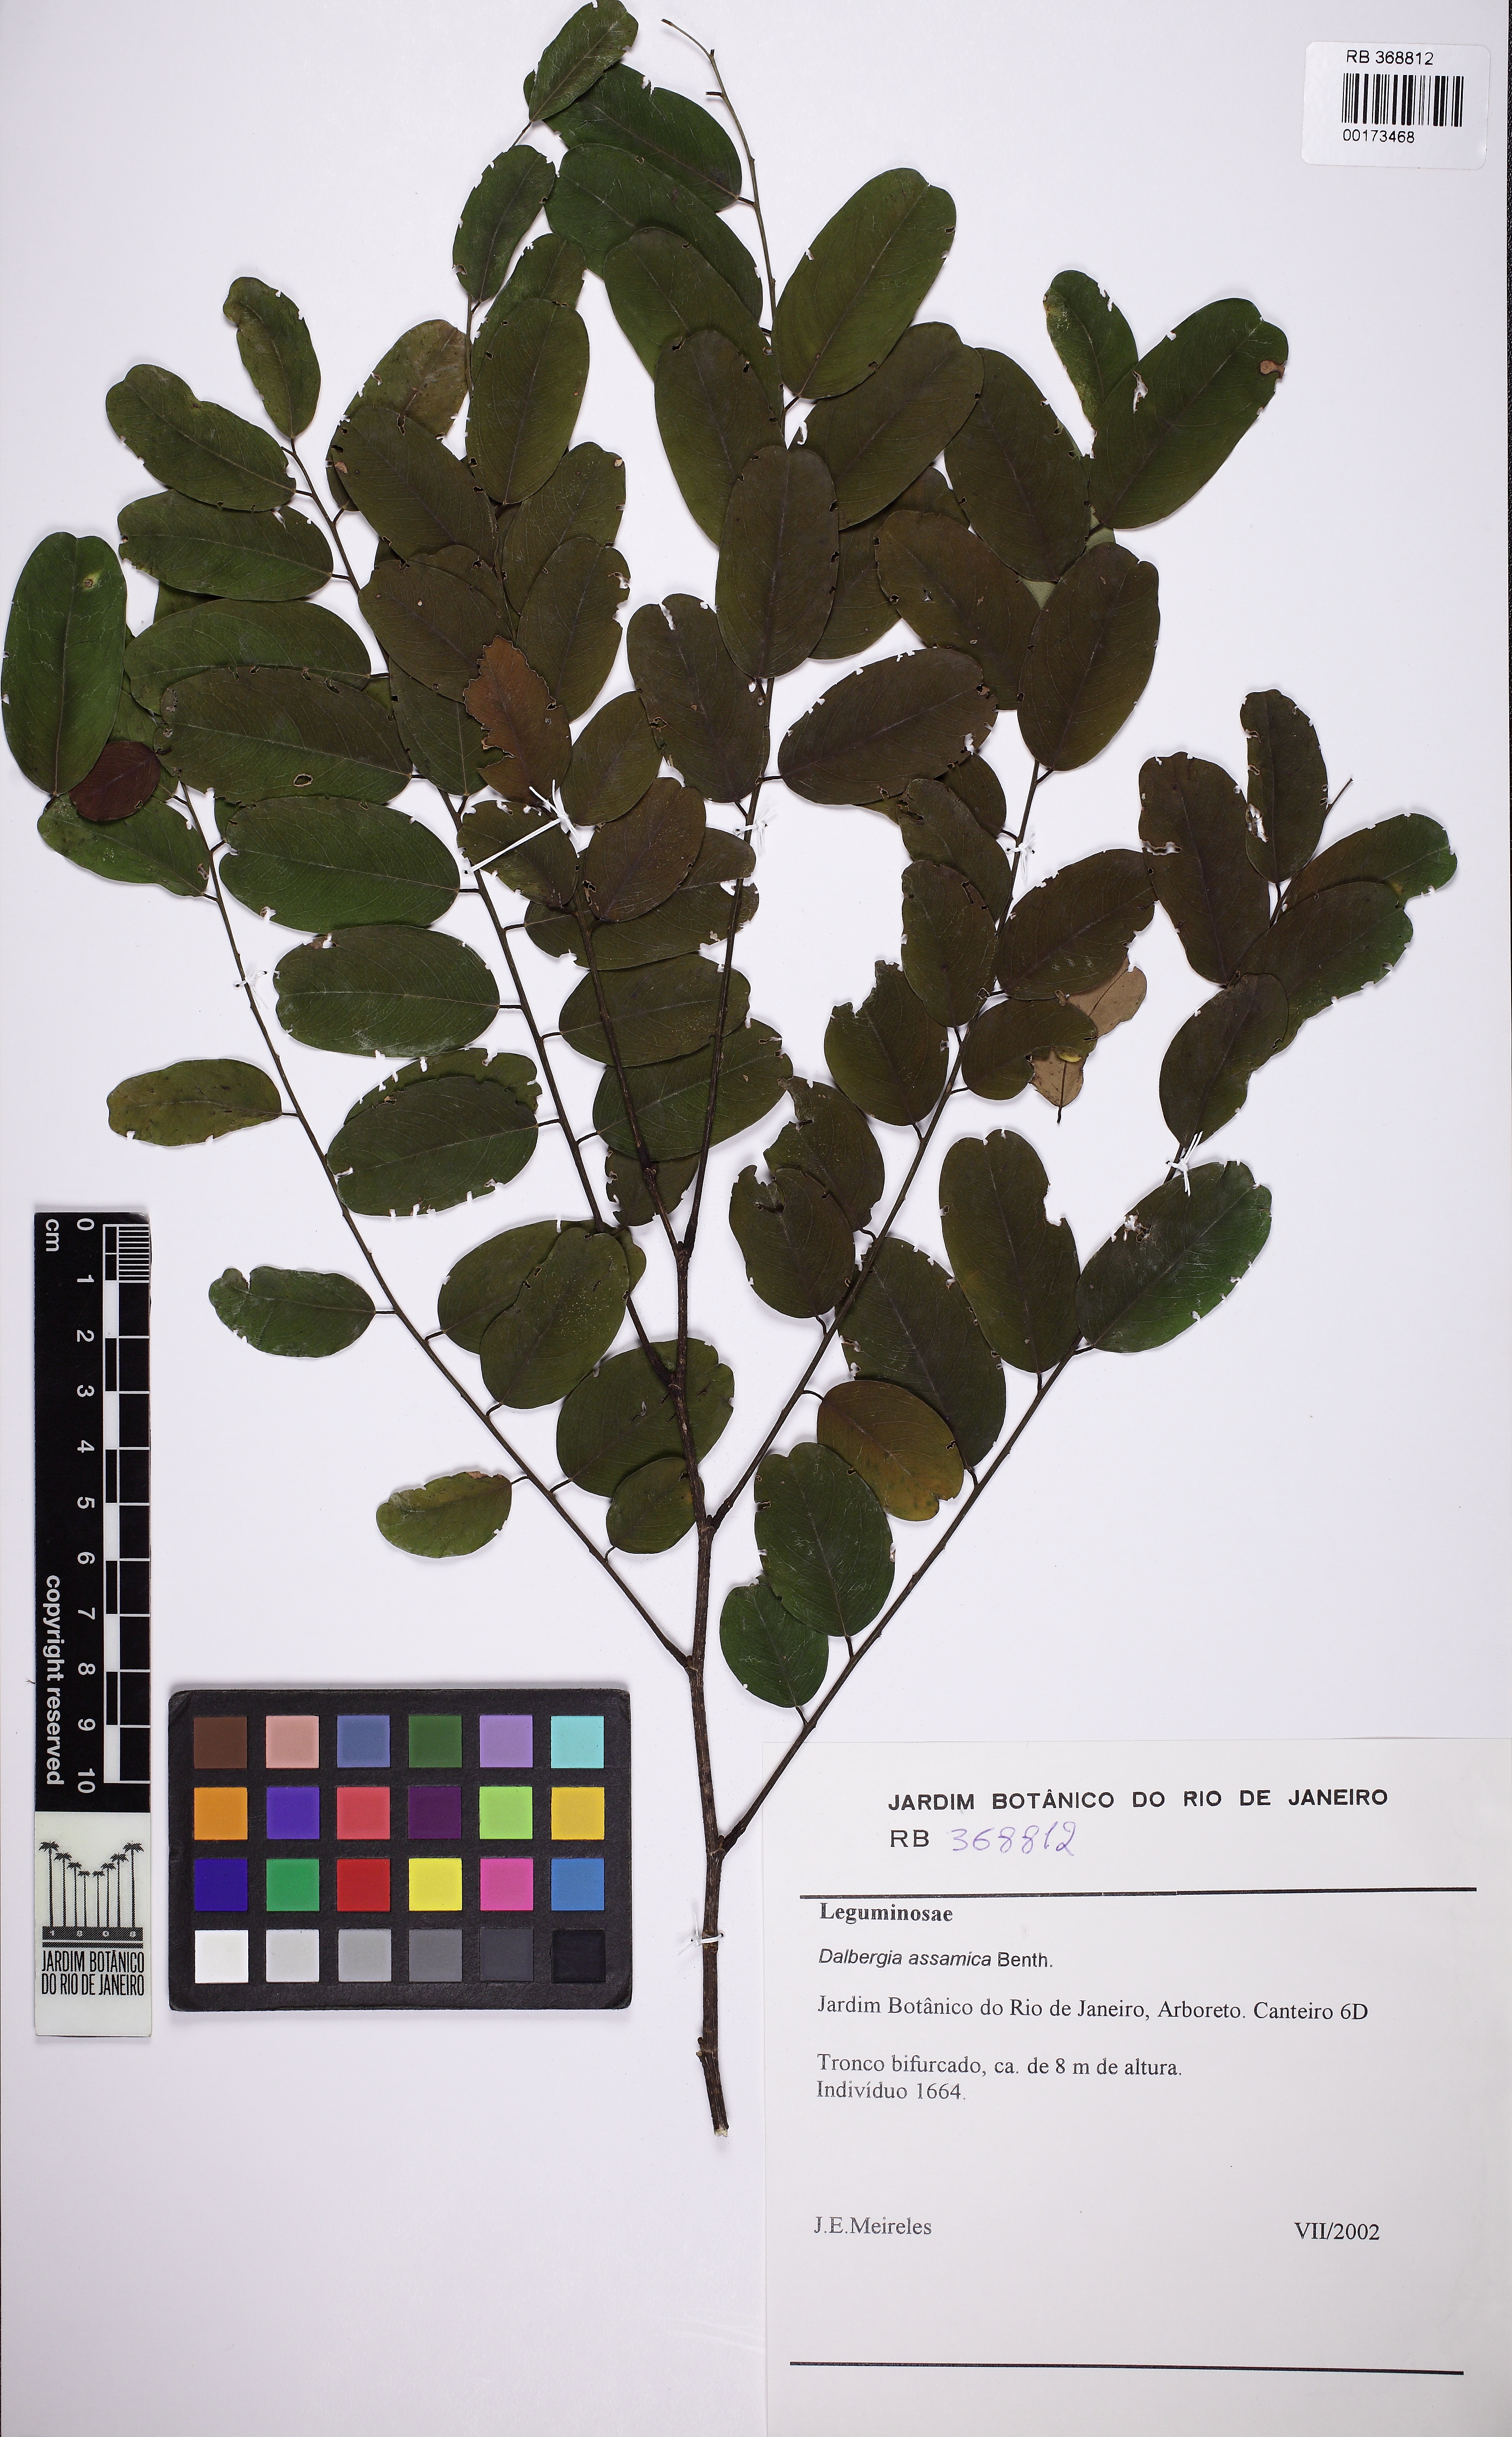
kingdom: Plantae
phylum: Tracheophyta
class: Magnoliopsida
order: Fabales
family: Fabaceae
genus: Dalbergia
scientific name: Dalbergia assamica
